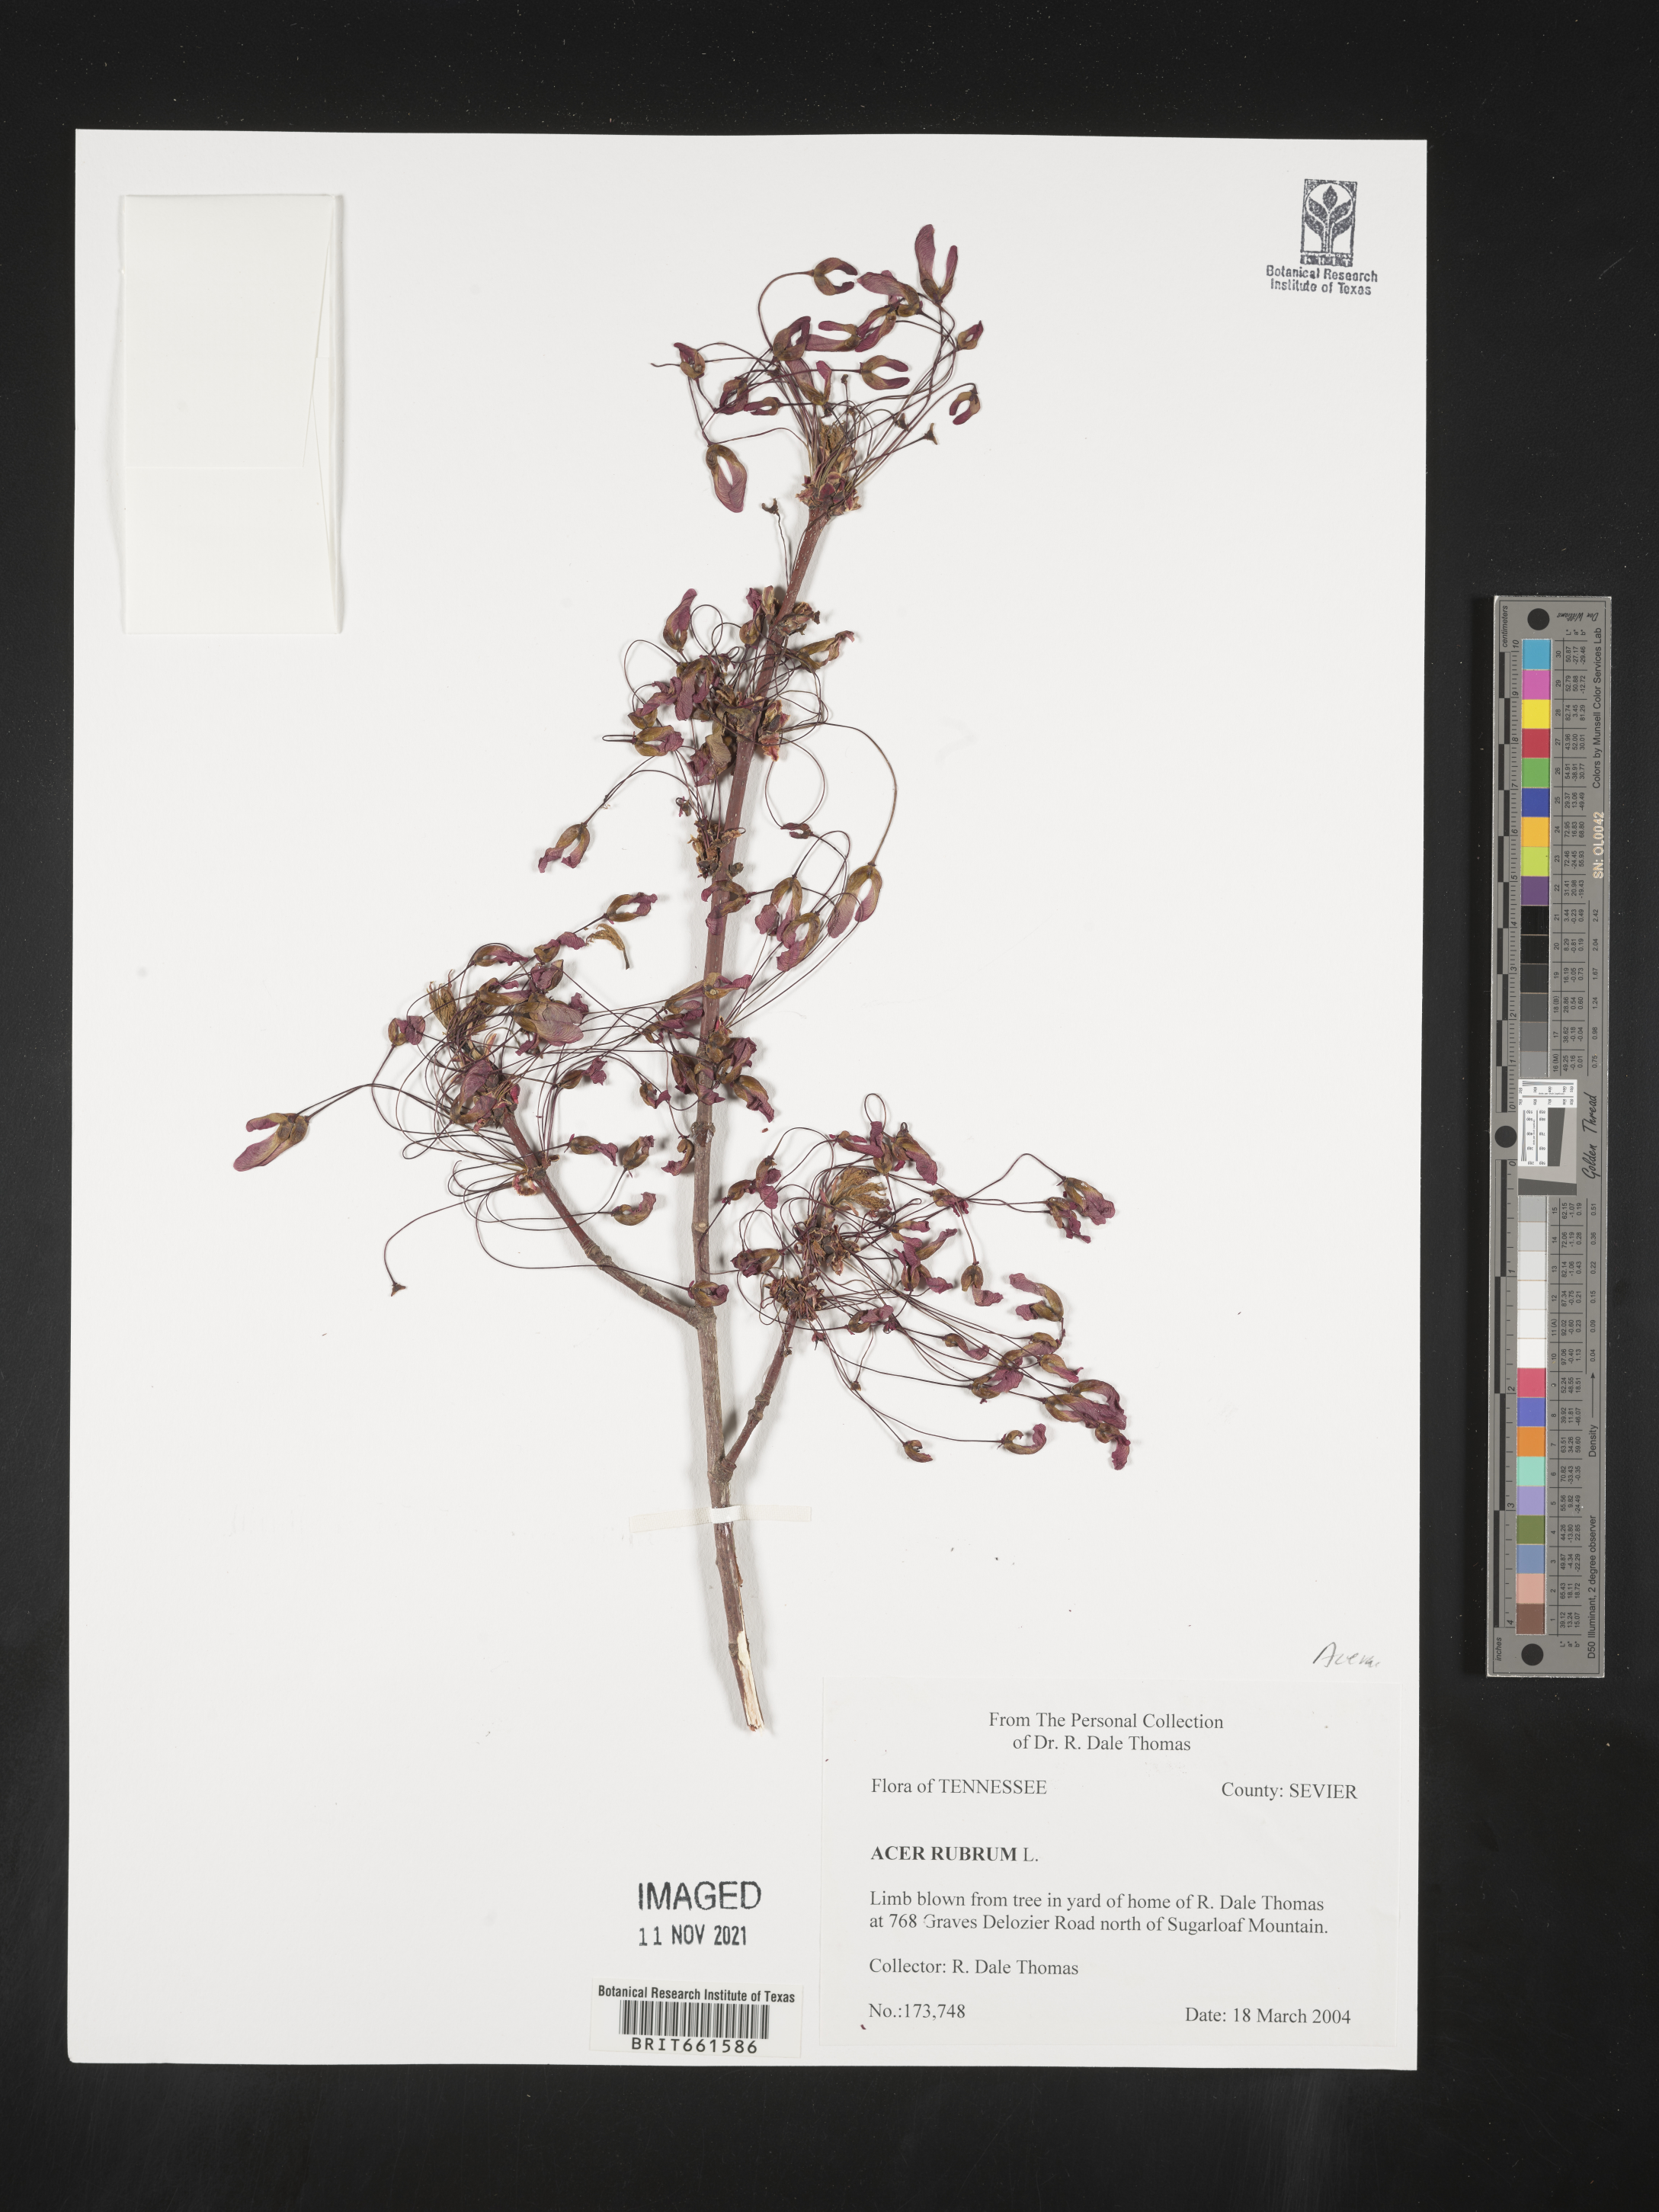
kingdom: Plantae
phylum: Tracheophyta
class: Magnoliopsida
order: Sapindales
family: Sapindaceae
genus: Acer
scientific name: Acer rubrum
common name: Red maple
